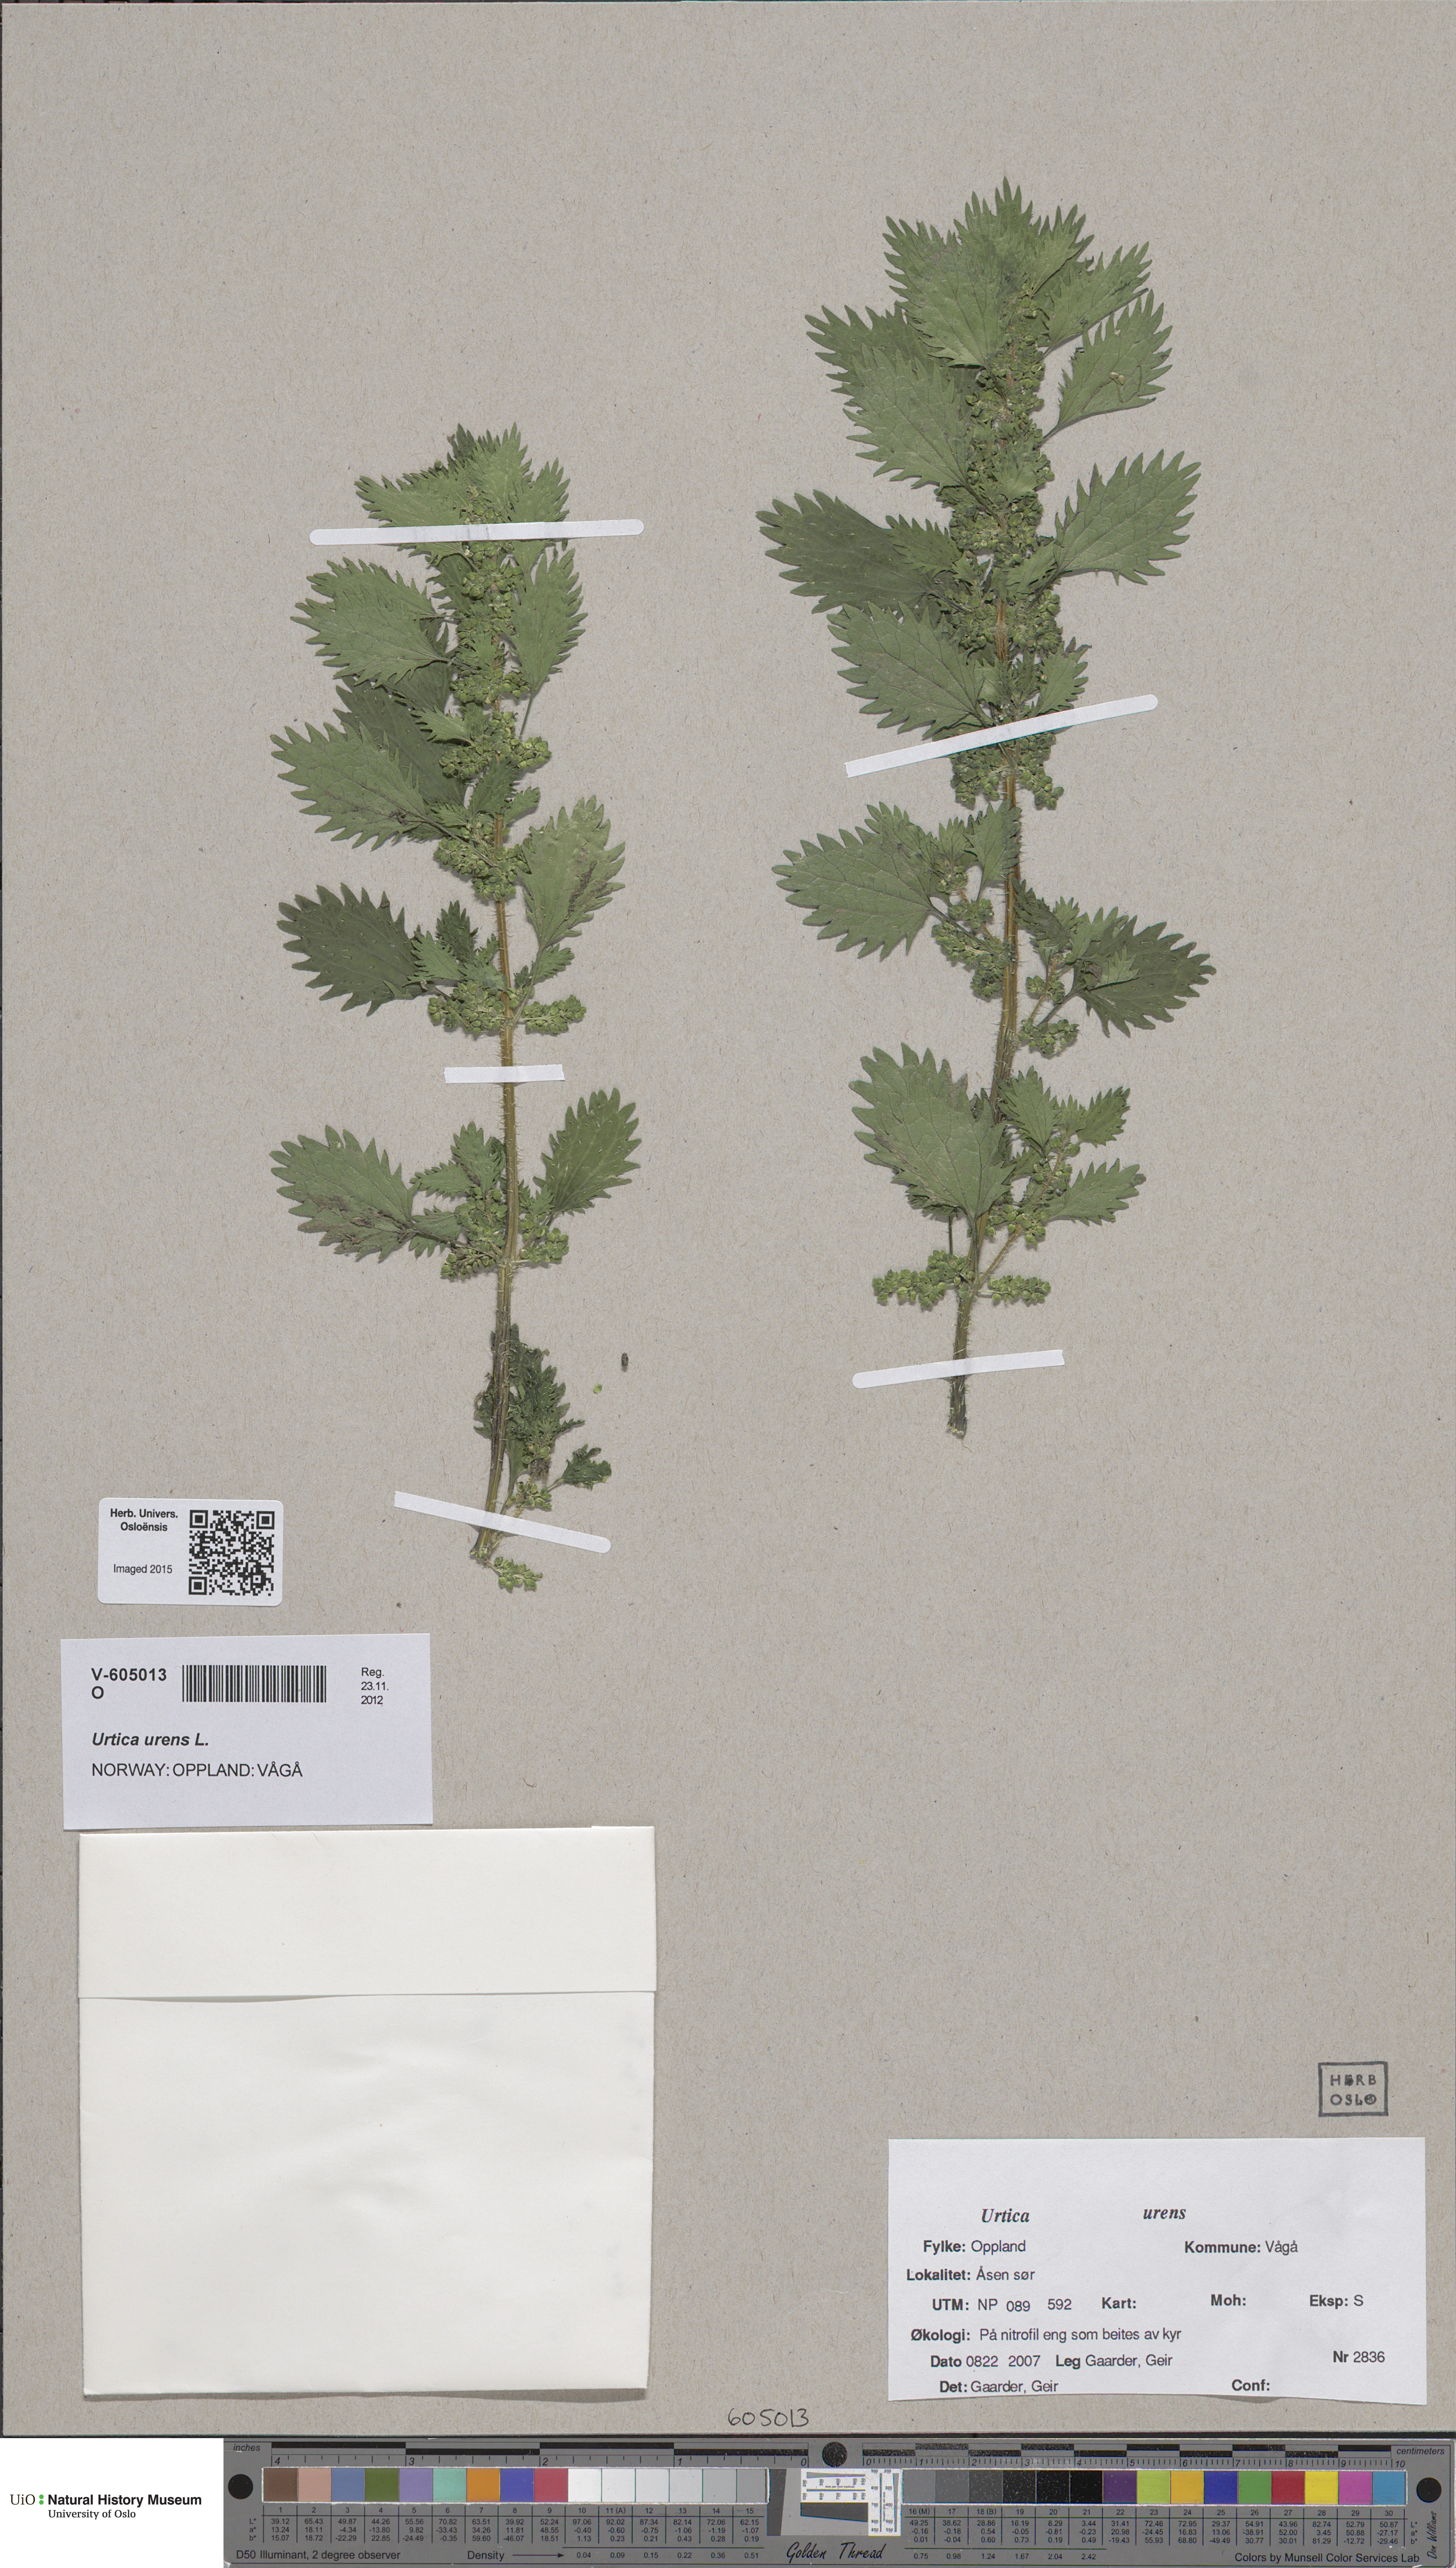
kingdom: Plantae
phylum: Tracheophyta
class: Magnoliopsida
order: Rosales
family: Urticaceae
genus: Urtica
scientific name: Urtica urens
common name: Dwarf nettle
